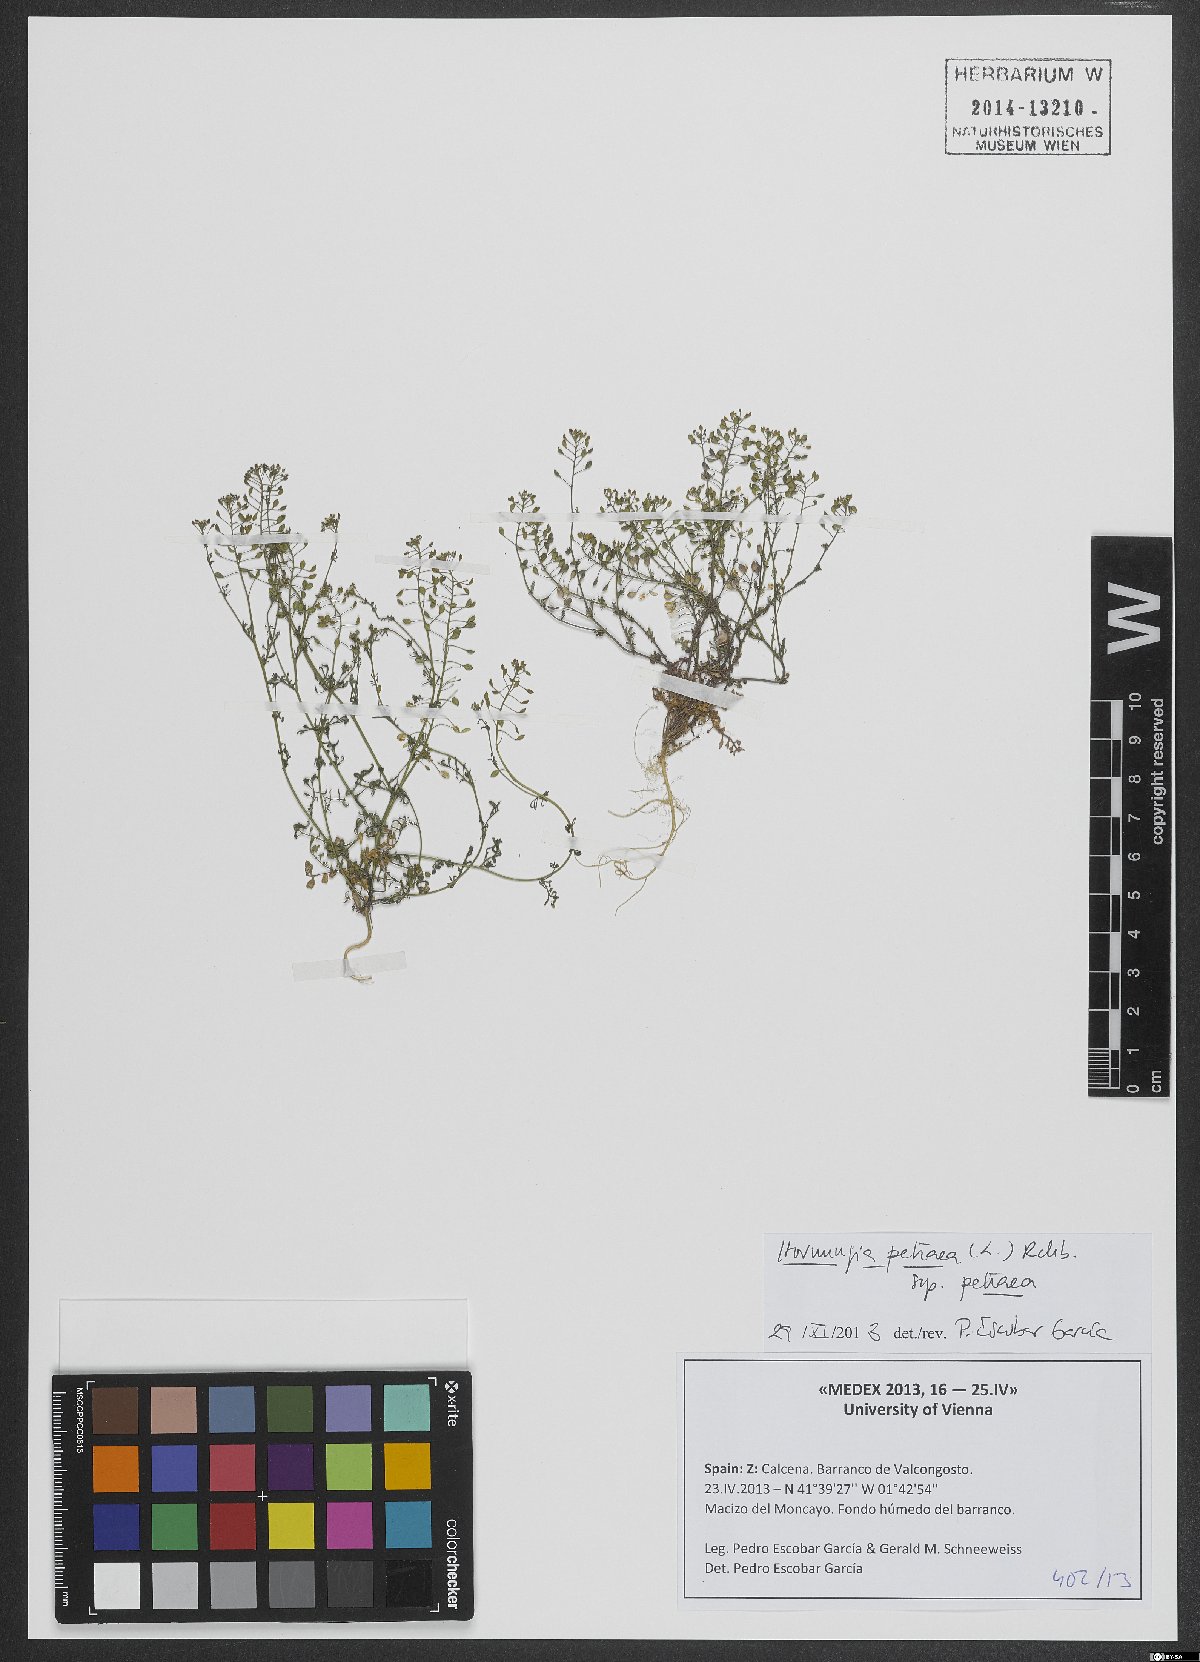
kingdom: Plantae
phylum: Tracheophyta
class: Magnoliopsida
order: Brassicales
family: Brassicaceae
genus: Hornungia
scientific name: Hornungia petraea
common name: Hutchinsia
